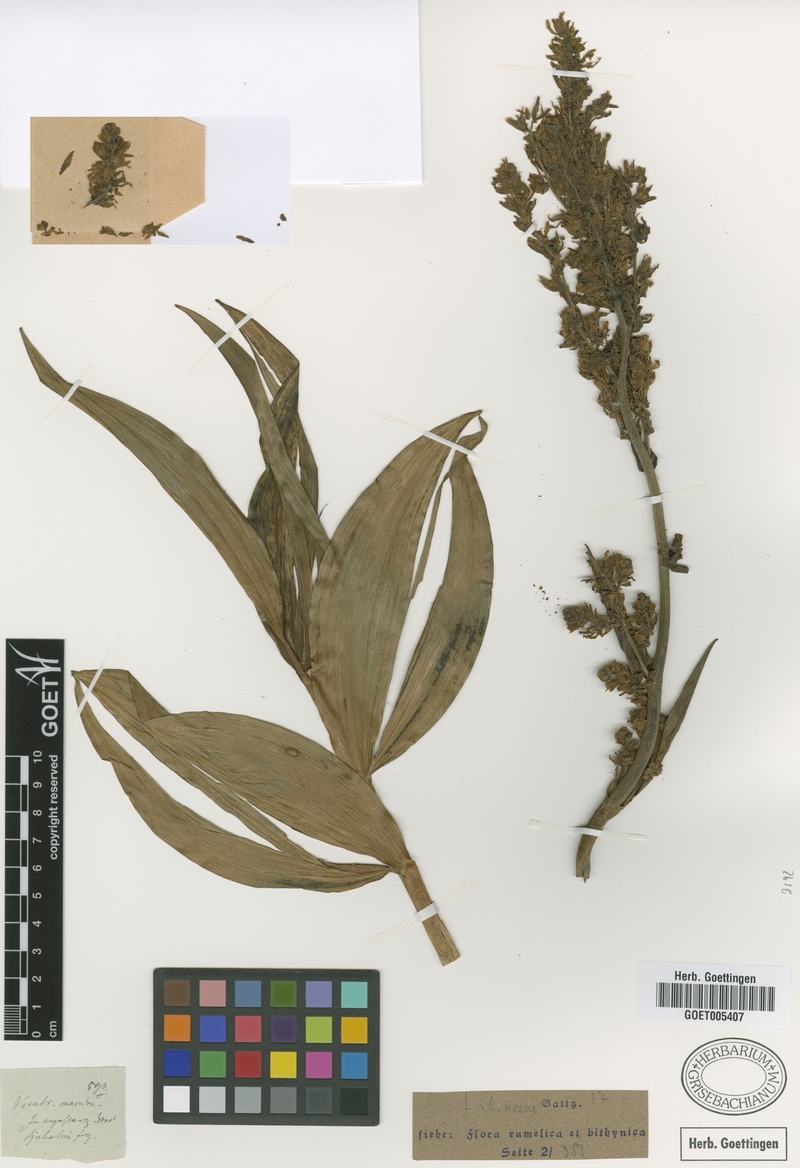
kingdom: Plantae
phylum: Tracheophyta
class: Liliopsida
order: Liliales
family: Melanthiaceae
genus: Veratrum
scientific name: Veratrum album
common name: White veratrum
